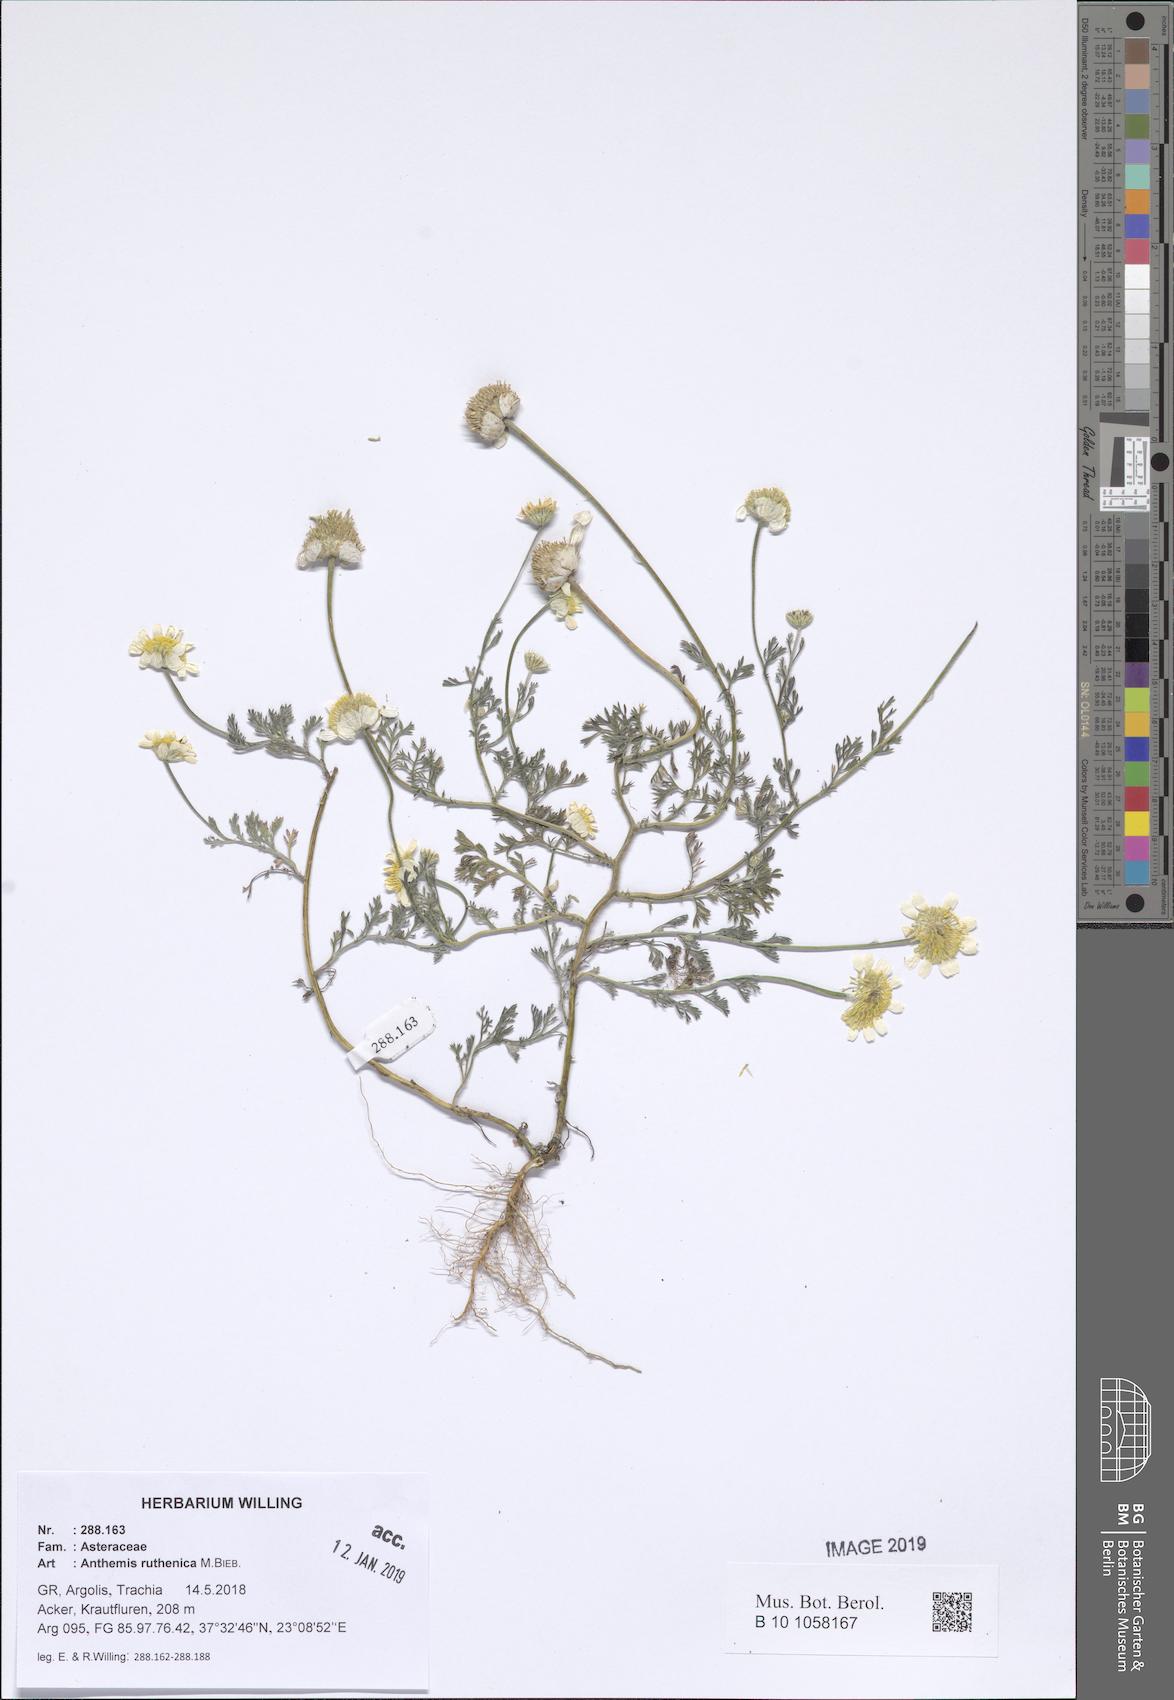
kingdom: Plantae
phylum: Tracheophyta
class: Magnoliopsida
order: Asterales
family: Asteraceae
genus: Anthemis
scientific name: Anthemis ruthenica
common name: Eastern chamomile
